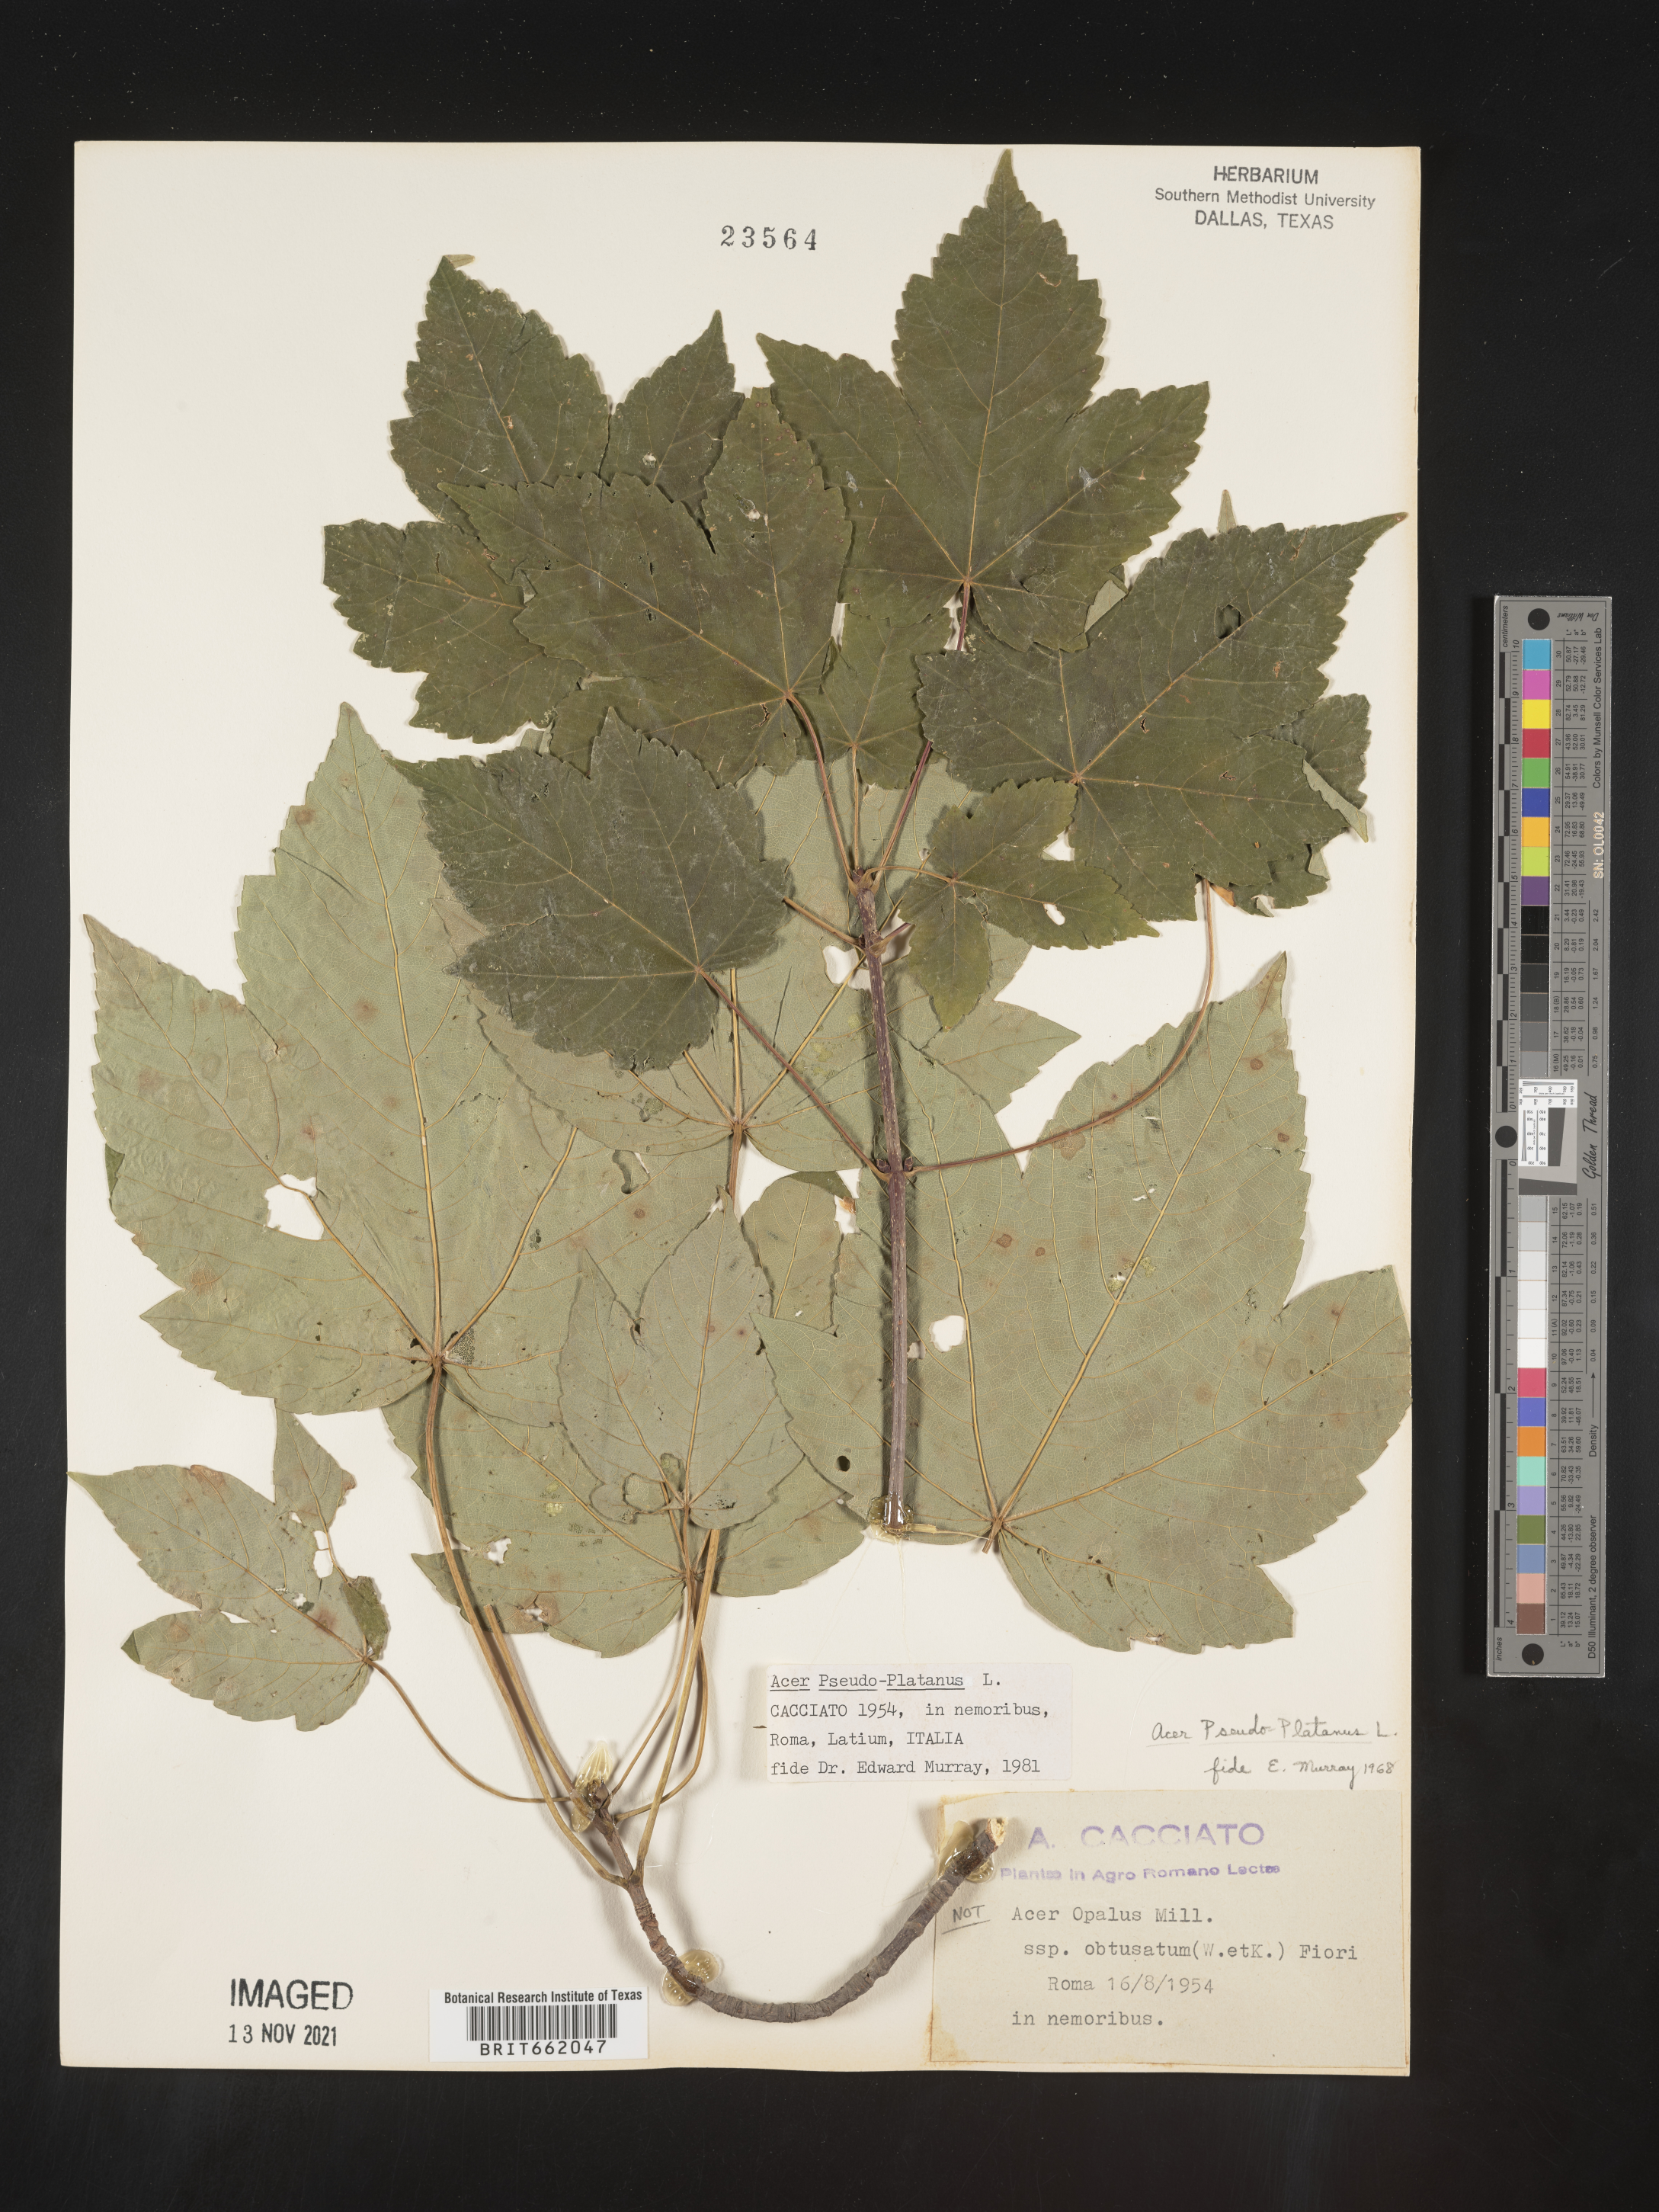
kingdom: Plantae
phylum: Tracheophyta
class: Magnoliopsida
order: Sapindales
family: Sapindaceae
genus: Acer
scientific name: Acer
